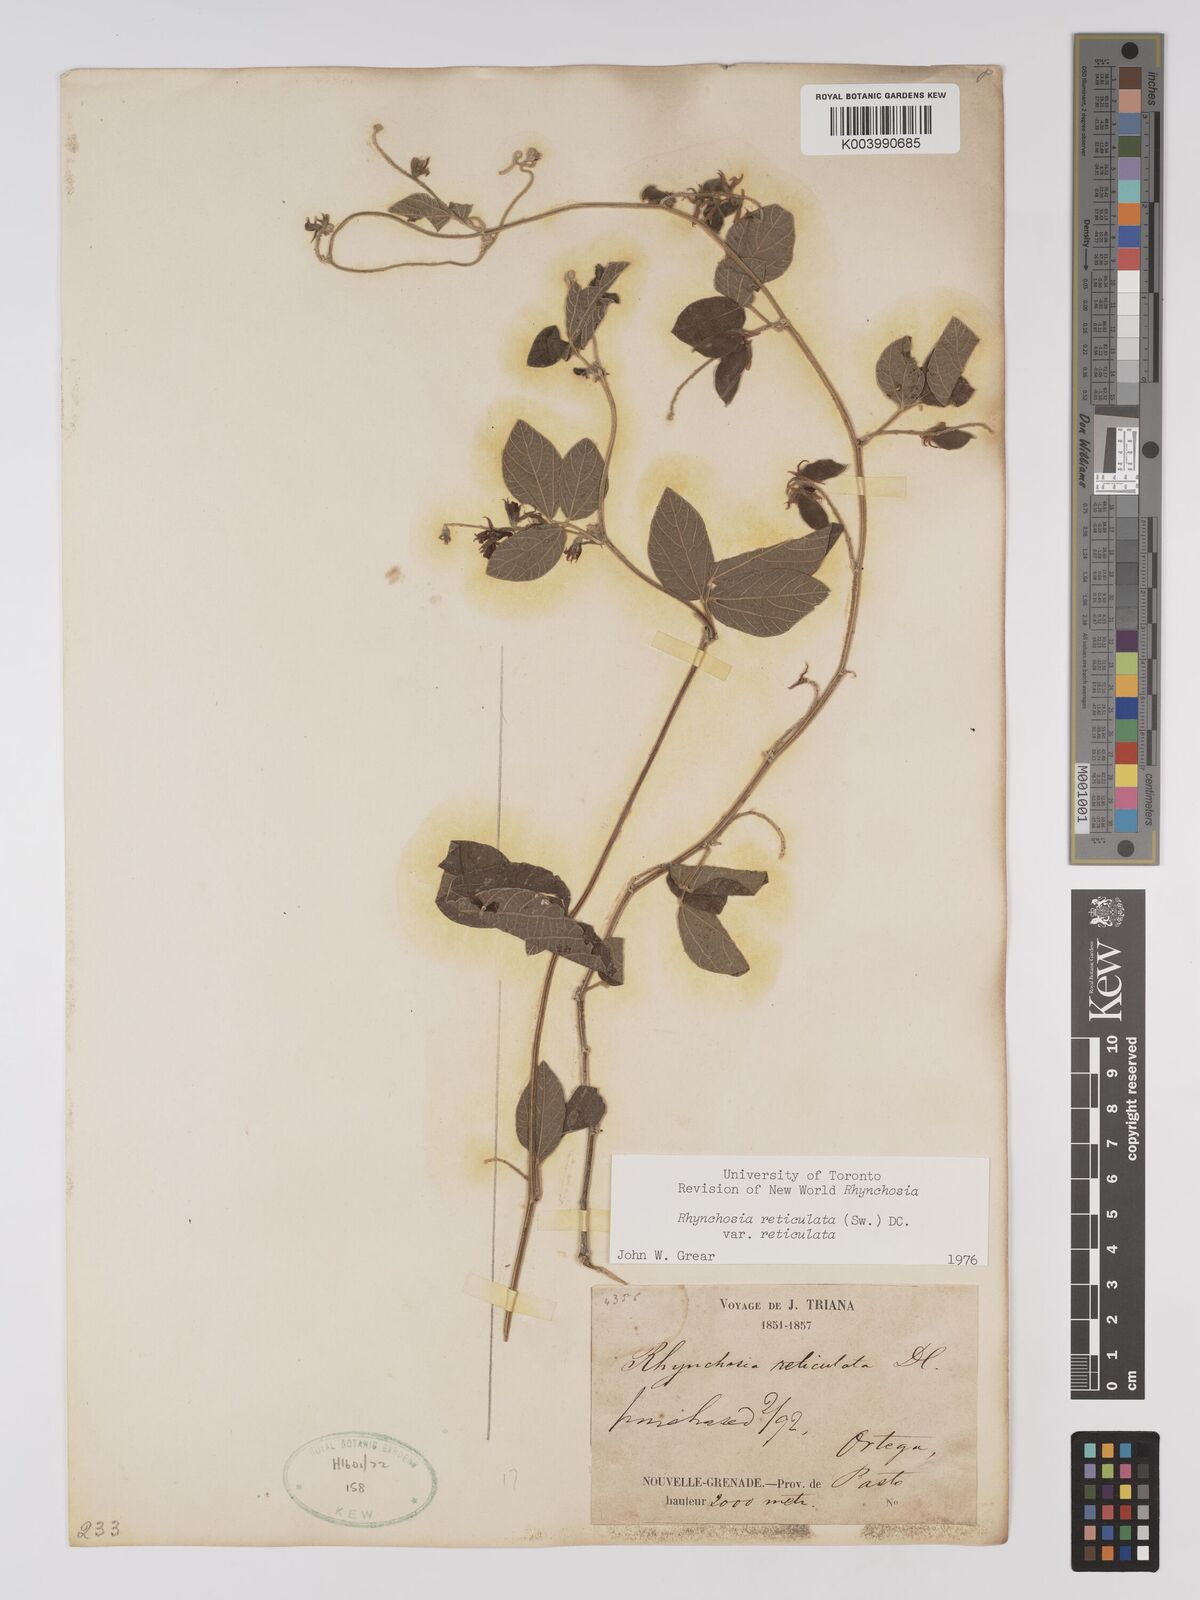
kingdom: Plantae
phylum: Tracheophyta
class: Magnoliopsida
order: Fabales
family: Fabaceae
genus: Rhynchosia
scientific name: Rhynchosia reticulata
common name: Pea withe
